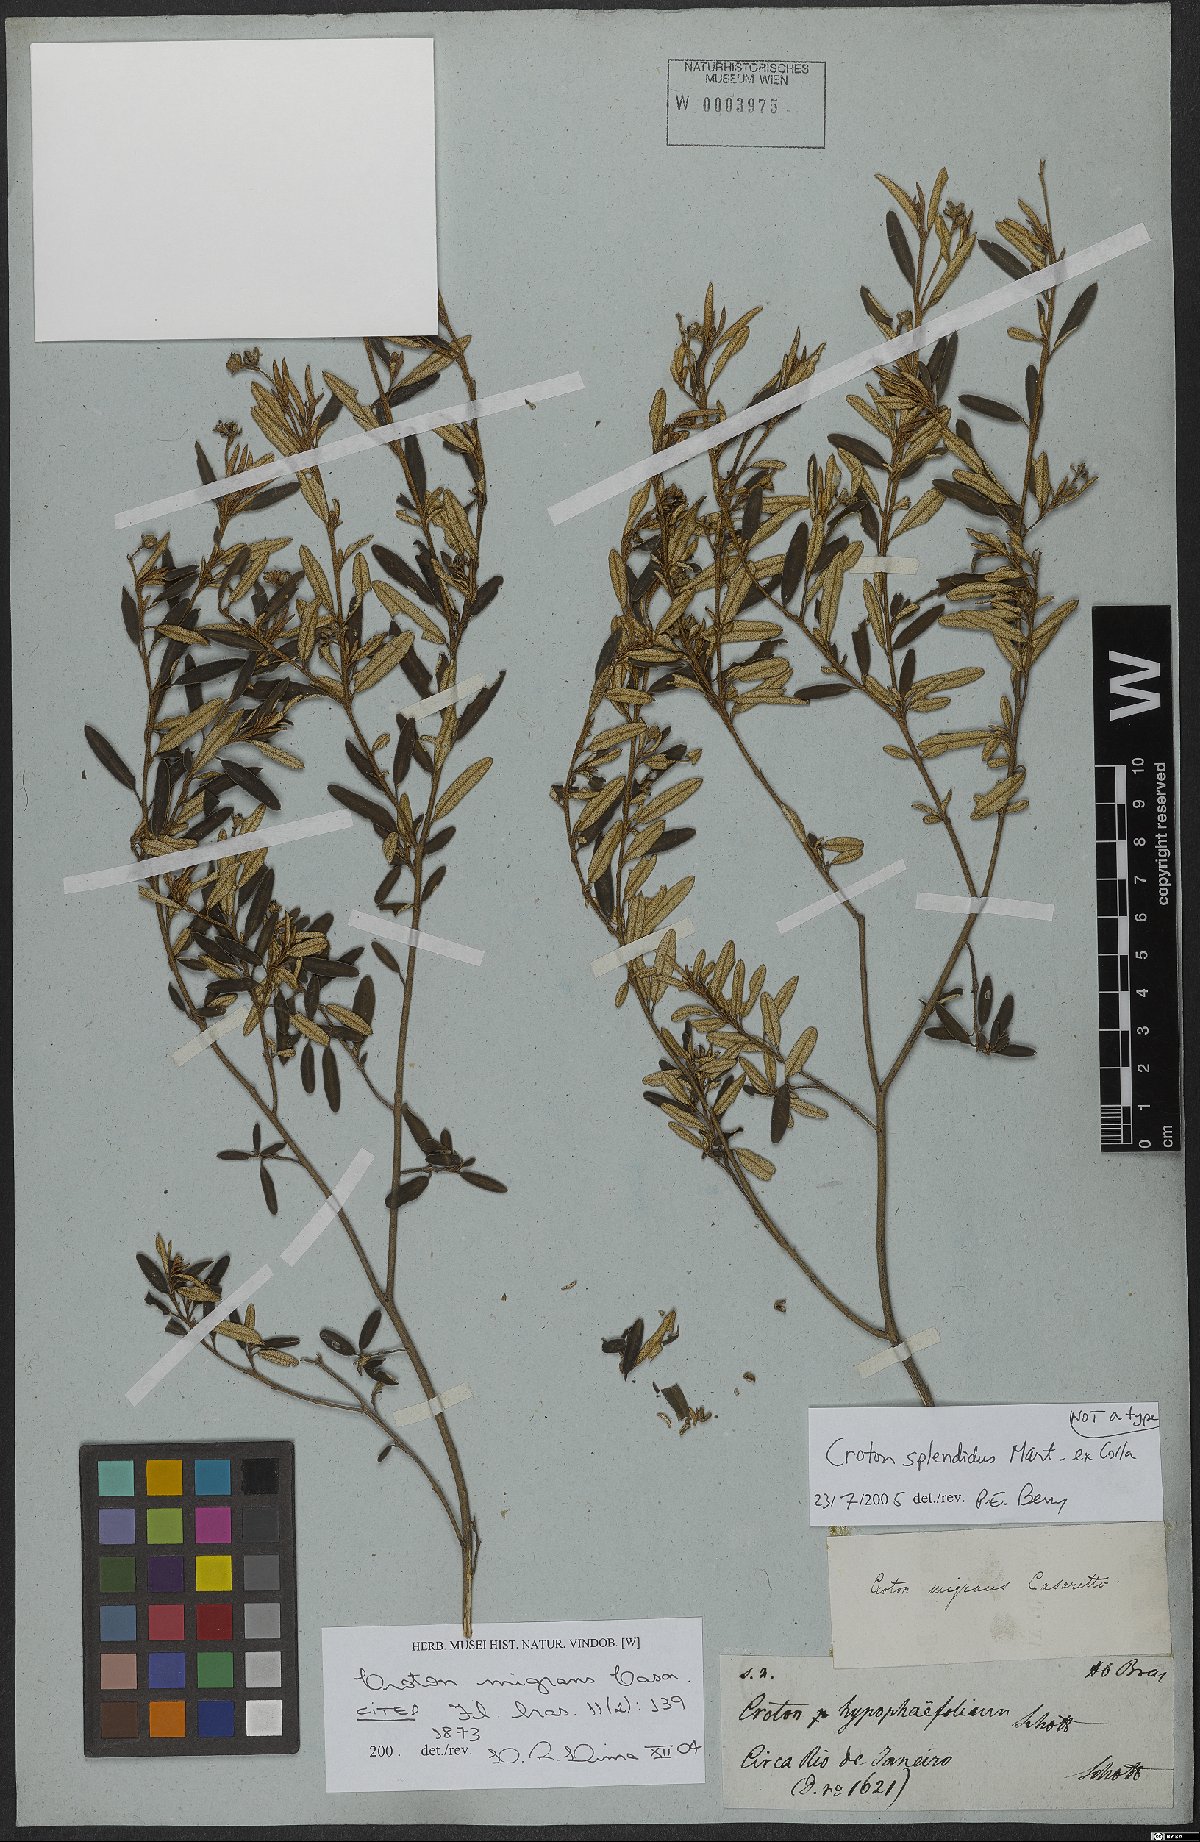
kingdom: Plantae
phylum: Tracheophyta
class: Magnoliopsida
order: Malpighiales
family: Euphorbiaceae
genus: Croton
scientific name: Croton splendidus
